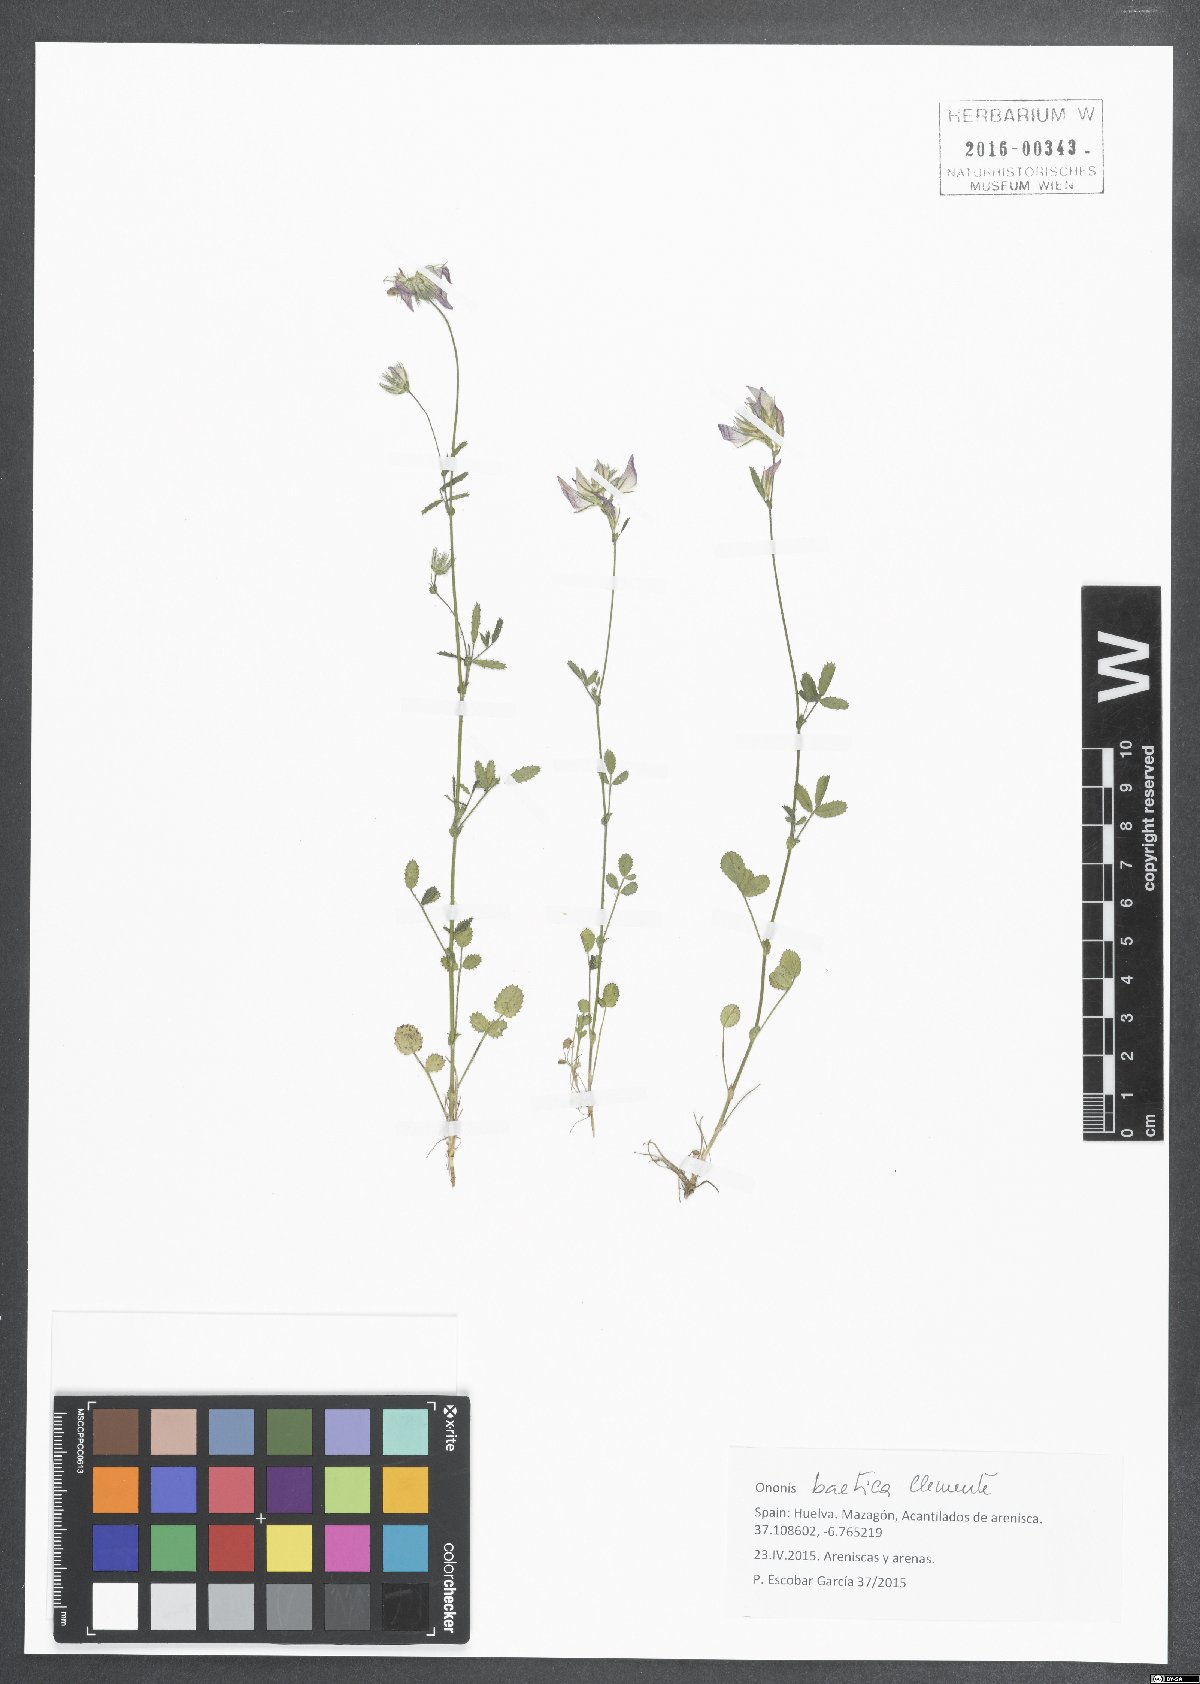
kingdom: Plantae
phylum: Tracheophyta
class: Magnoliopsida
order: Fabales
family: Fabaceae
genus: Ononis
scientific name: Ononis baetica
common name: Andalucian restharrow
